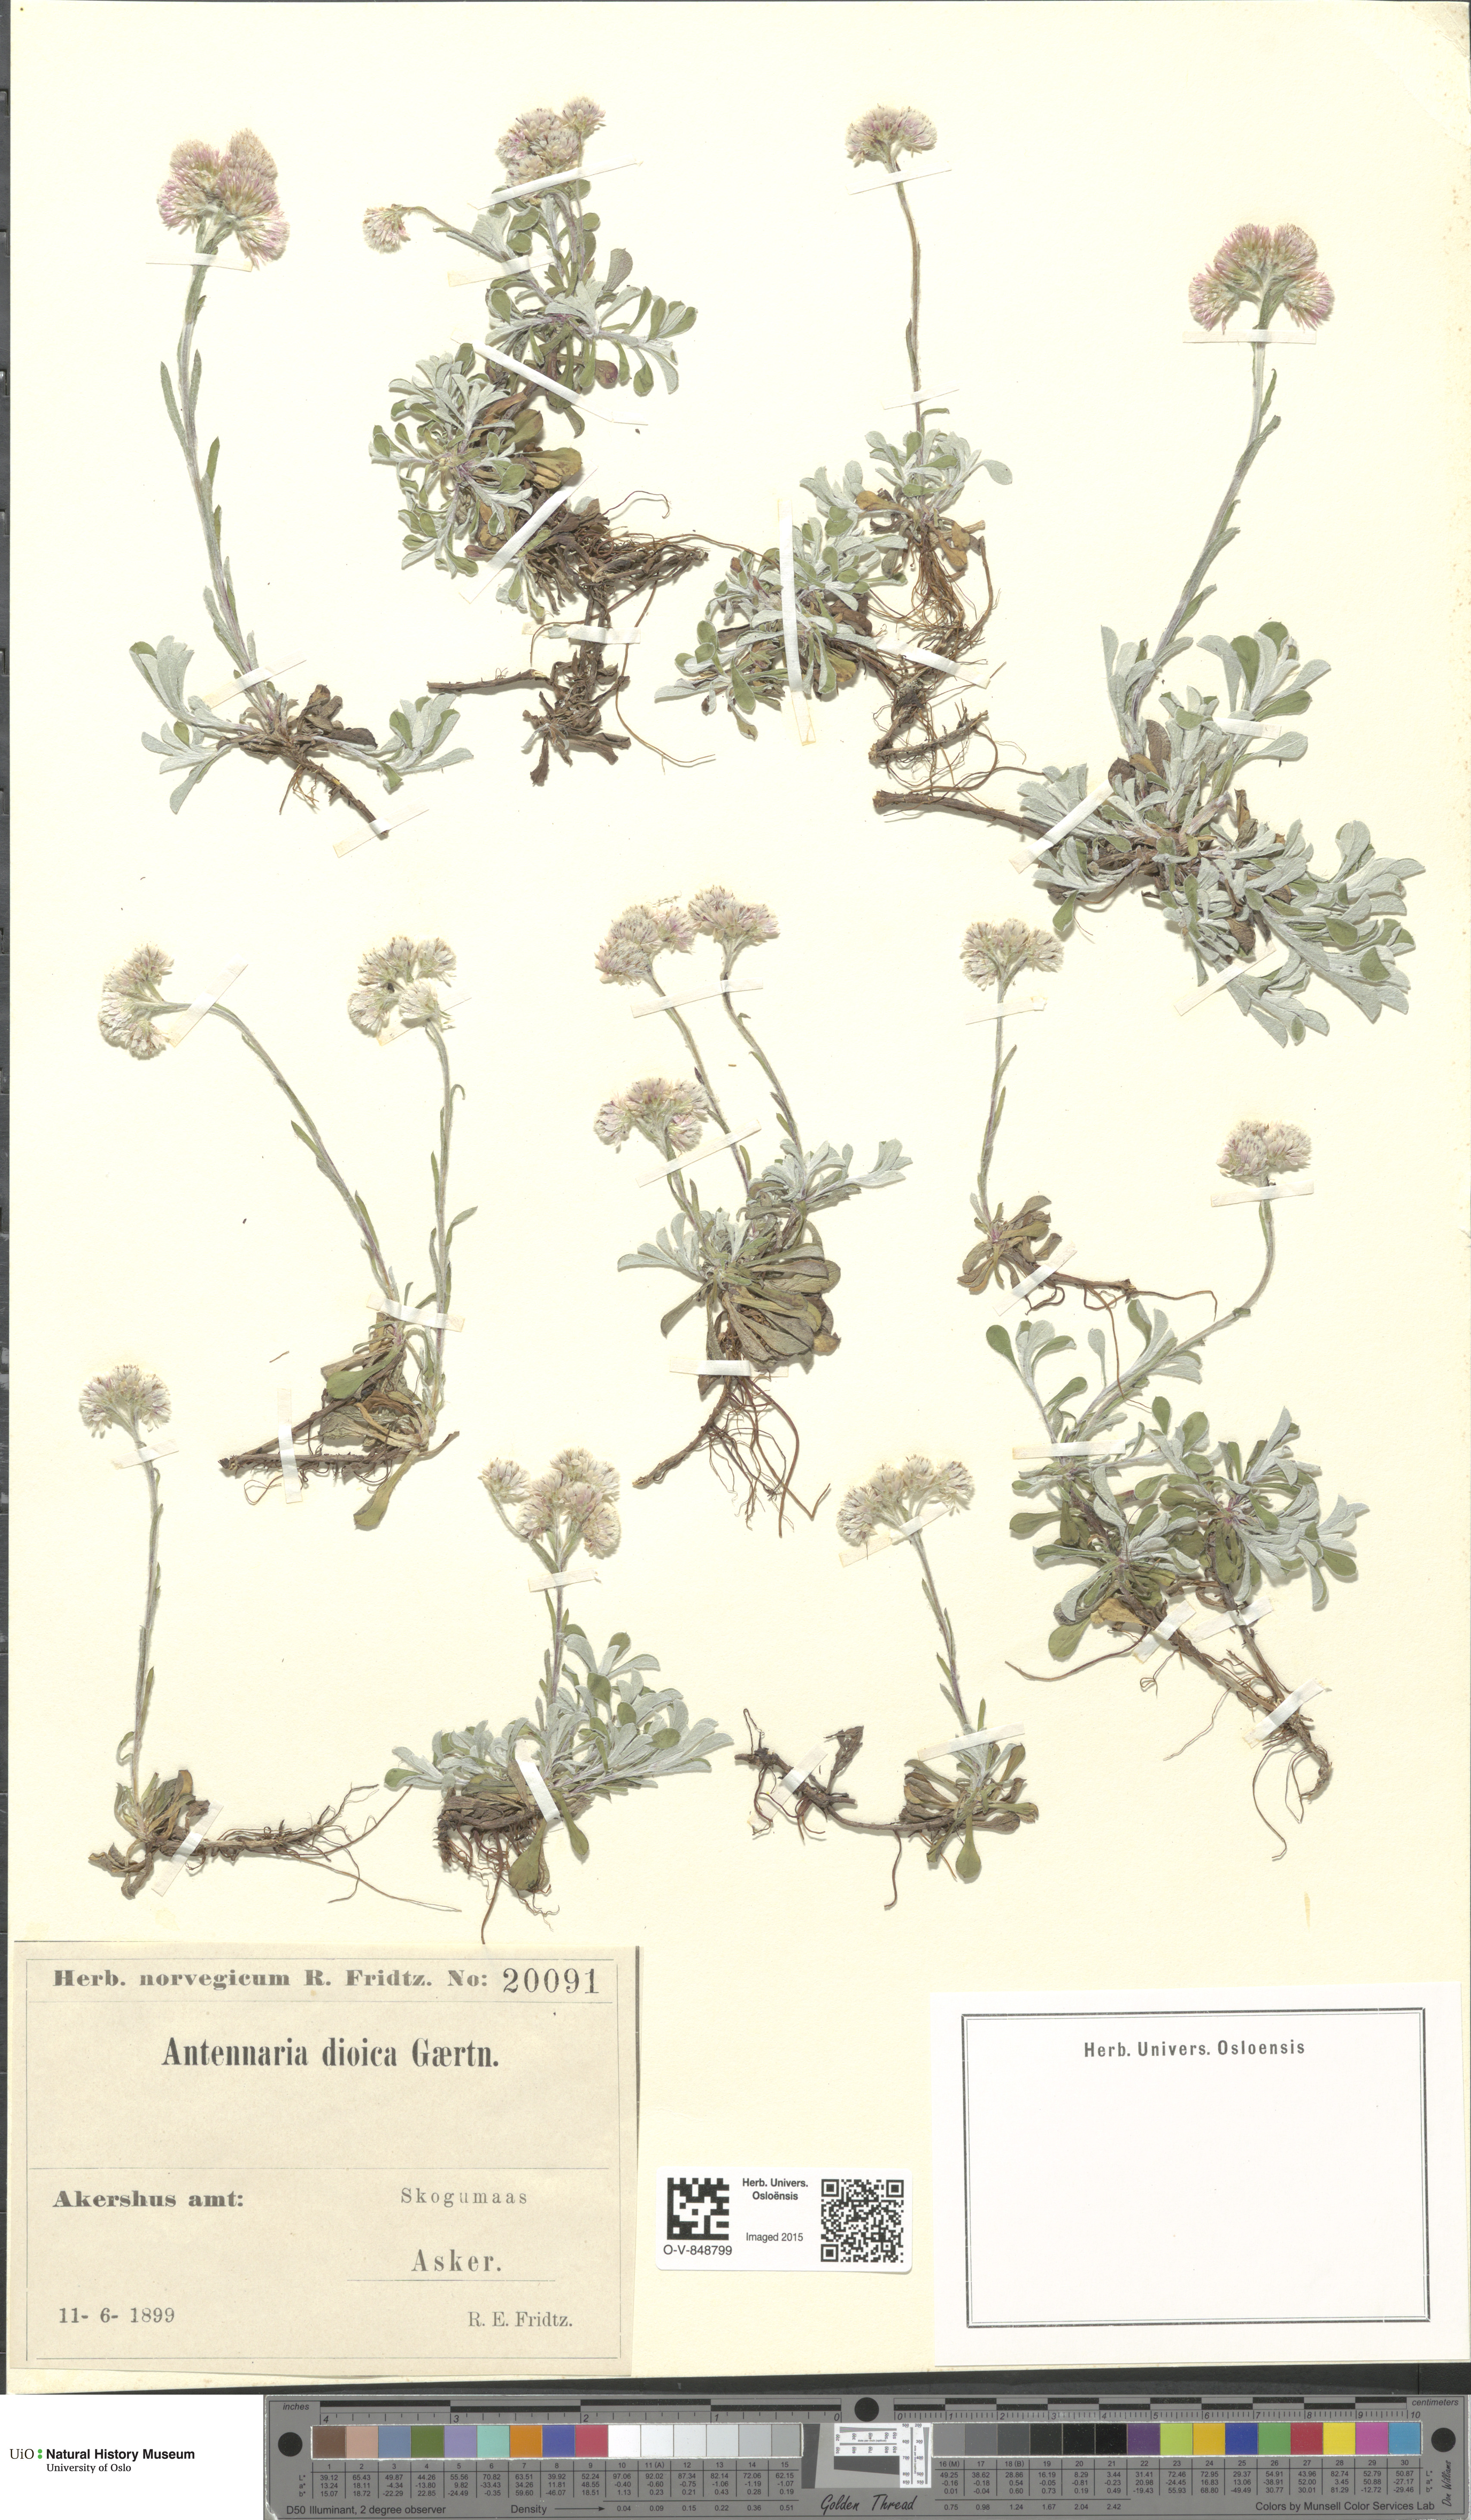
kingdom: Plantae
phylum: Tracheophyta
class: Magnoliopsida
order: Asterales
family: Asteraceae
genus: Antennaria
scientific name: Antennaria dioica
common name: Mountain everlasting
